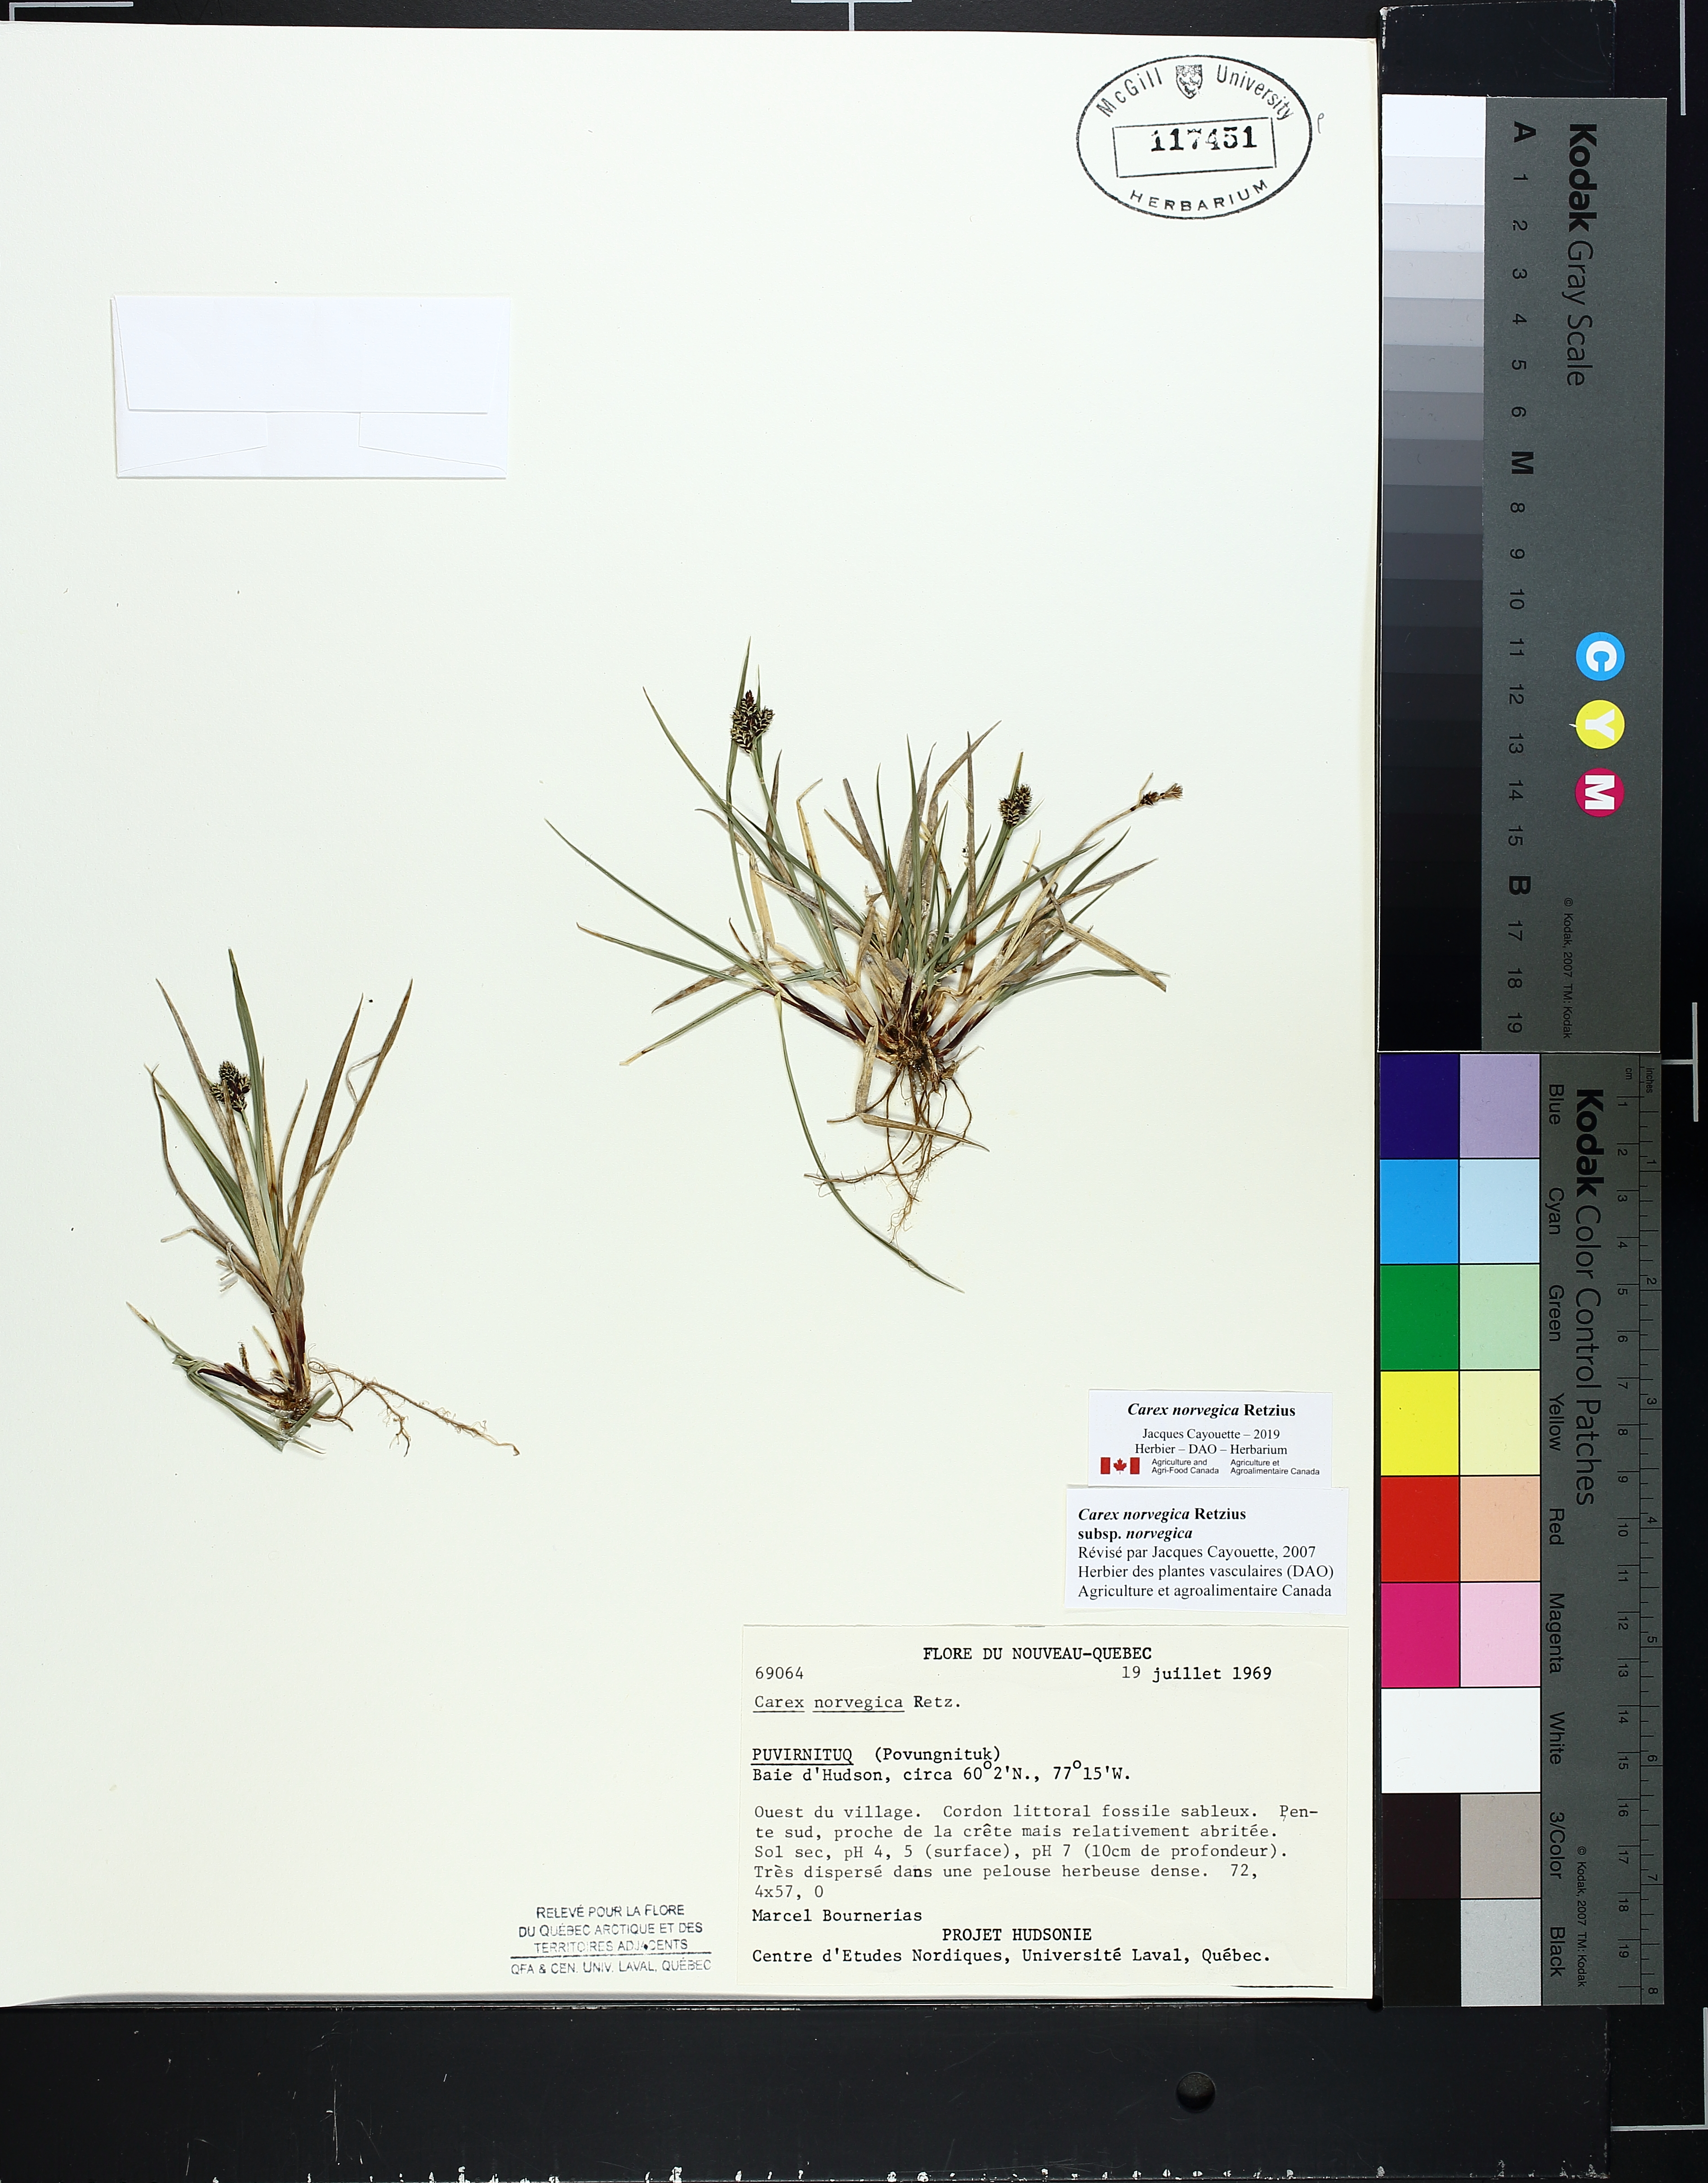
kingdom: Plantae
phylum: Tracheophyta
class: Liliopsida
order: Poales
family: Cyperaceae
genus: Carex
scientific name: Carex norvegica
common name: Close-headed alpine-sedge
